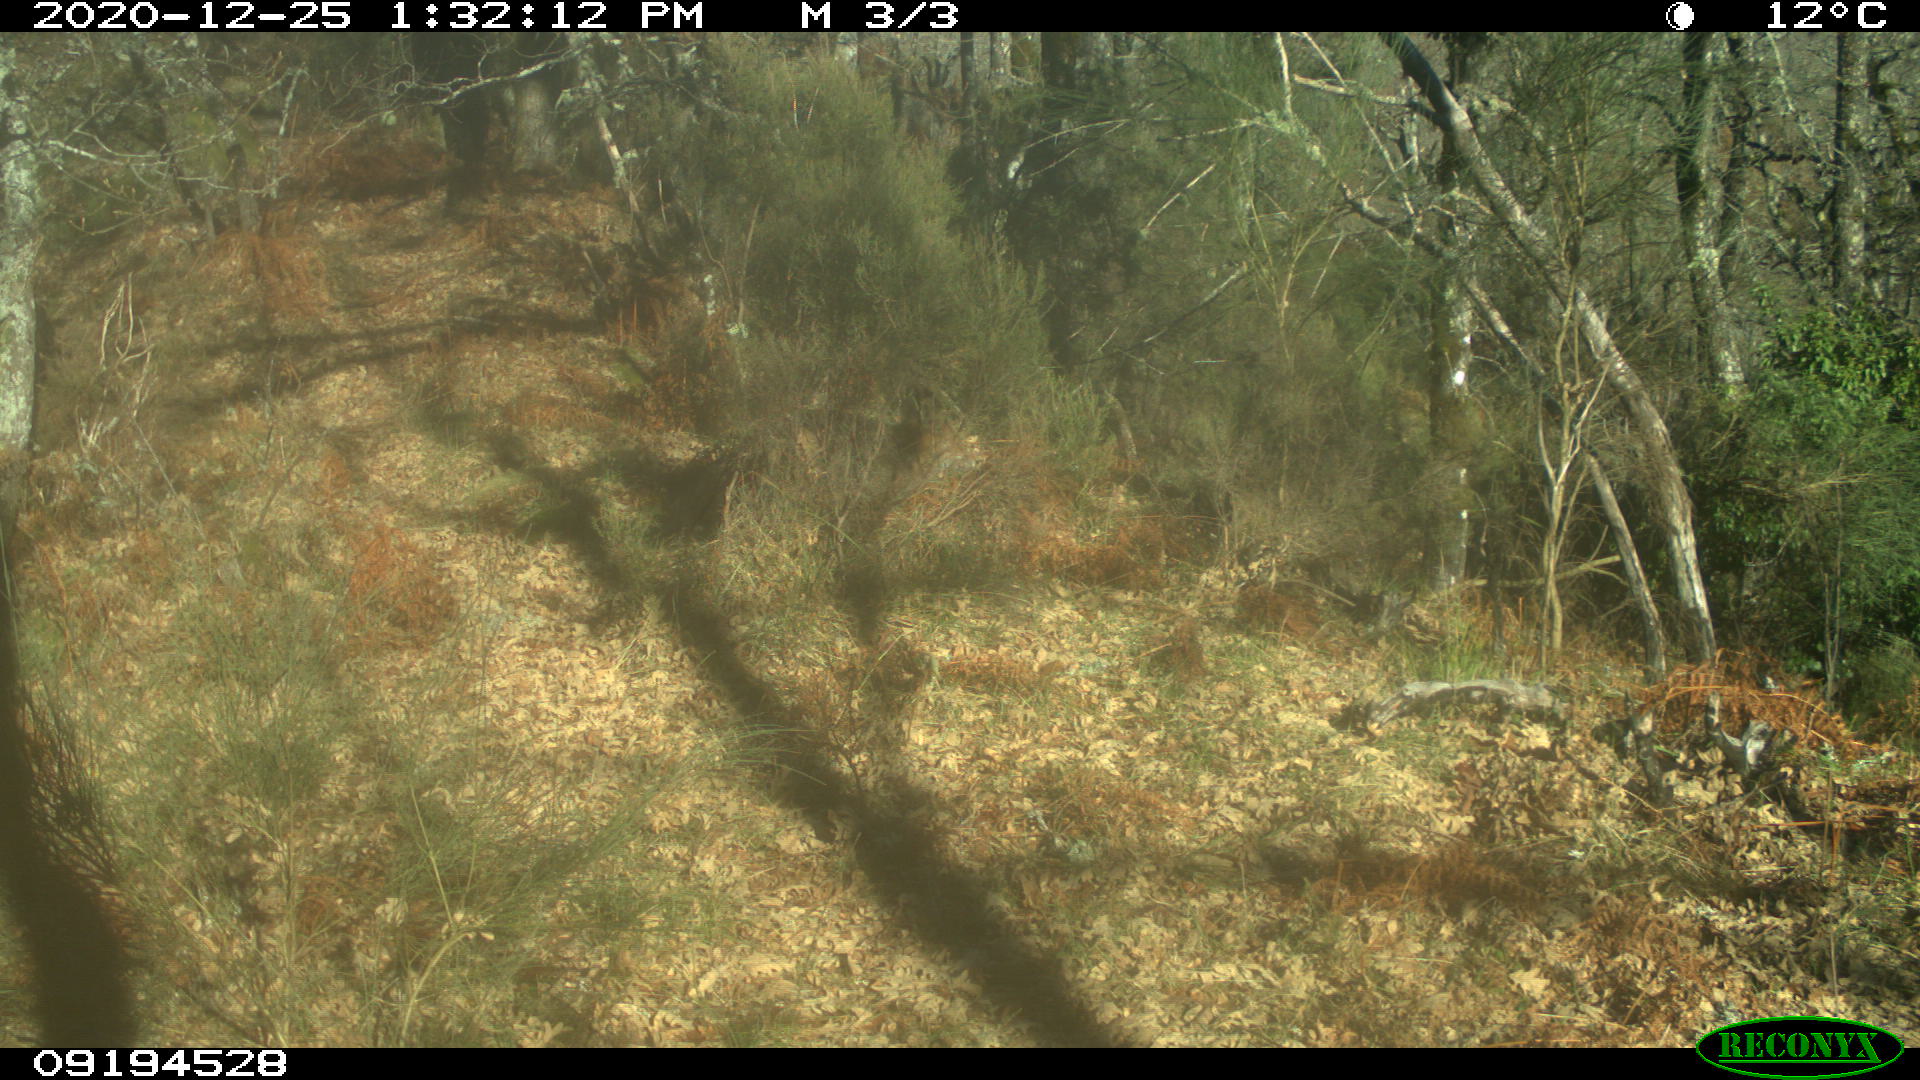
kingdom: Animalia
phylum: Chordata
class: Mammalia
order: Carnivora
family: Canidae
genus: Vulpes
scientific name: Vulpes vulpes
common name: Red fox
